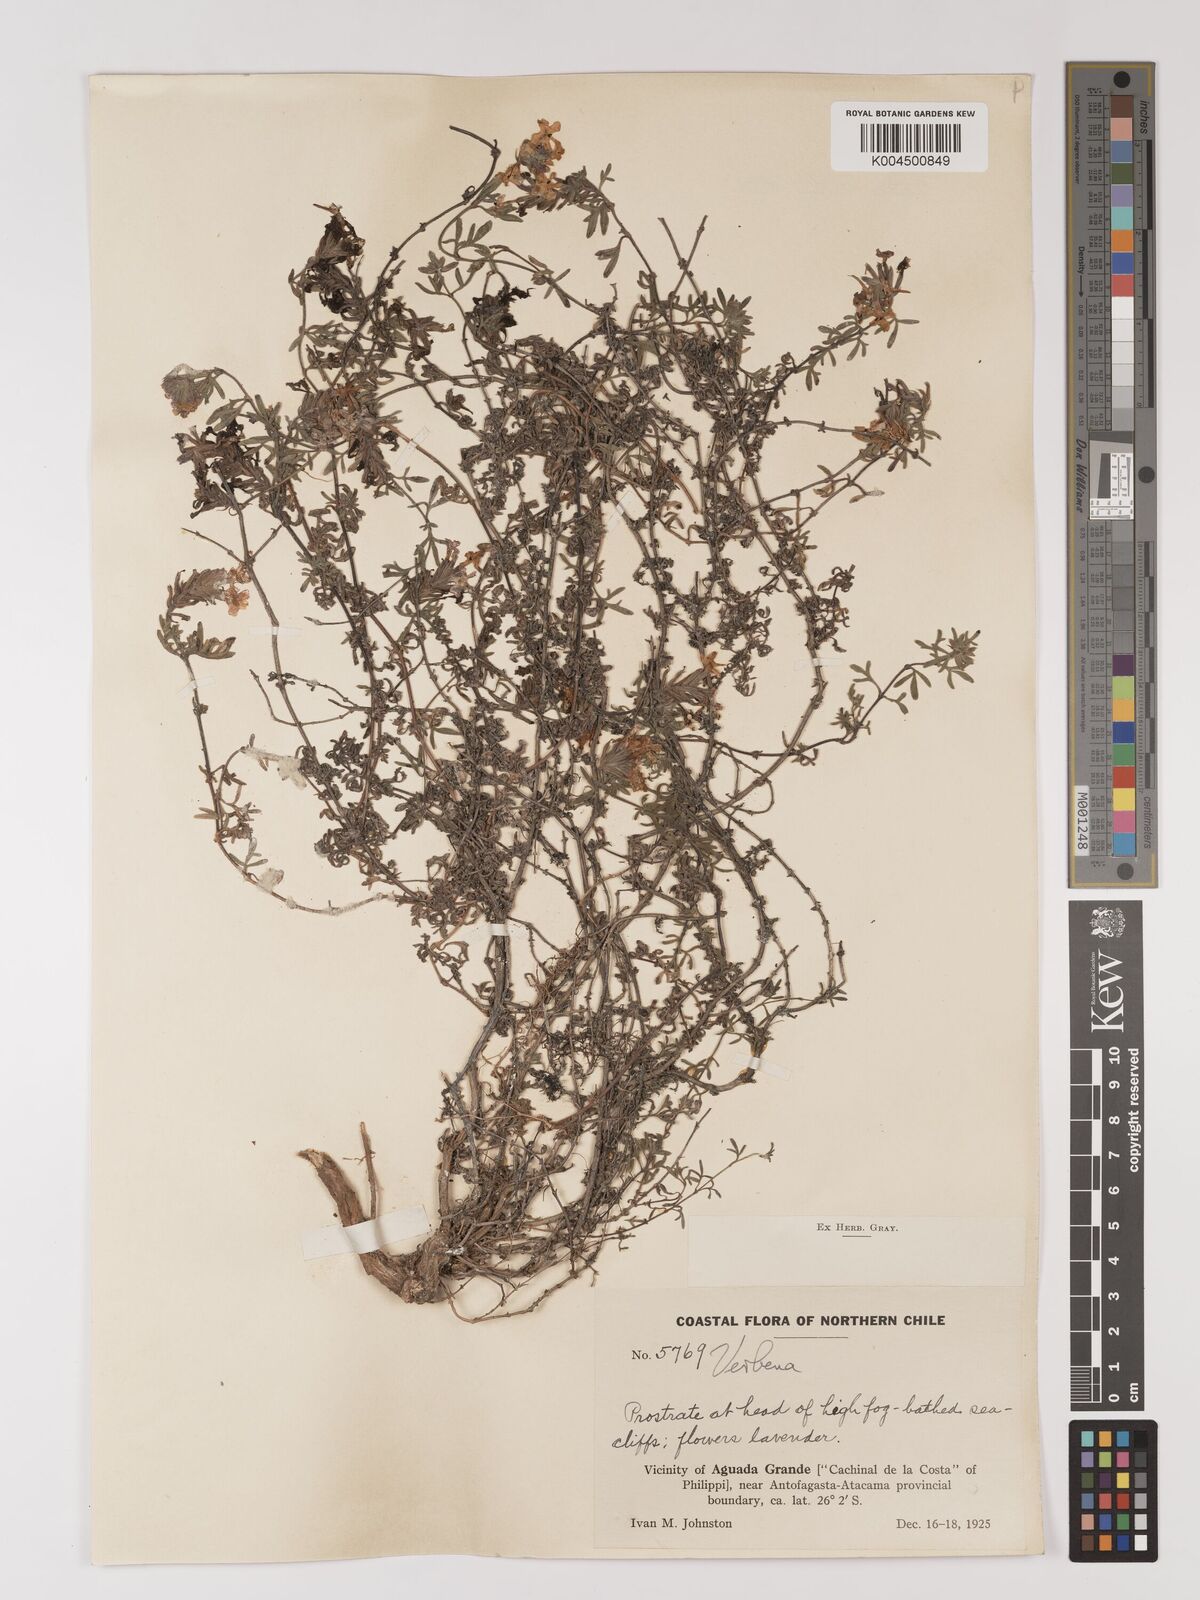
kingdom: Plantae
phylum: Tracheophyta
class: Magnoliopsida
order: Lamiales
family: Verbenaceae
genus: Verbena
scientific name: Verbena
